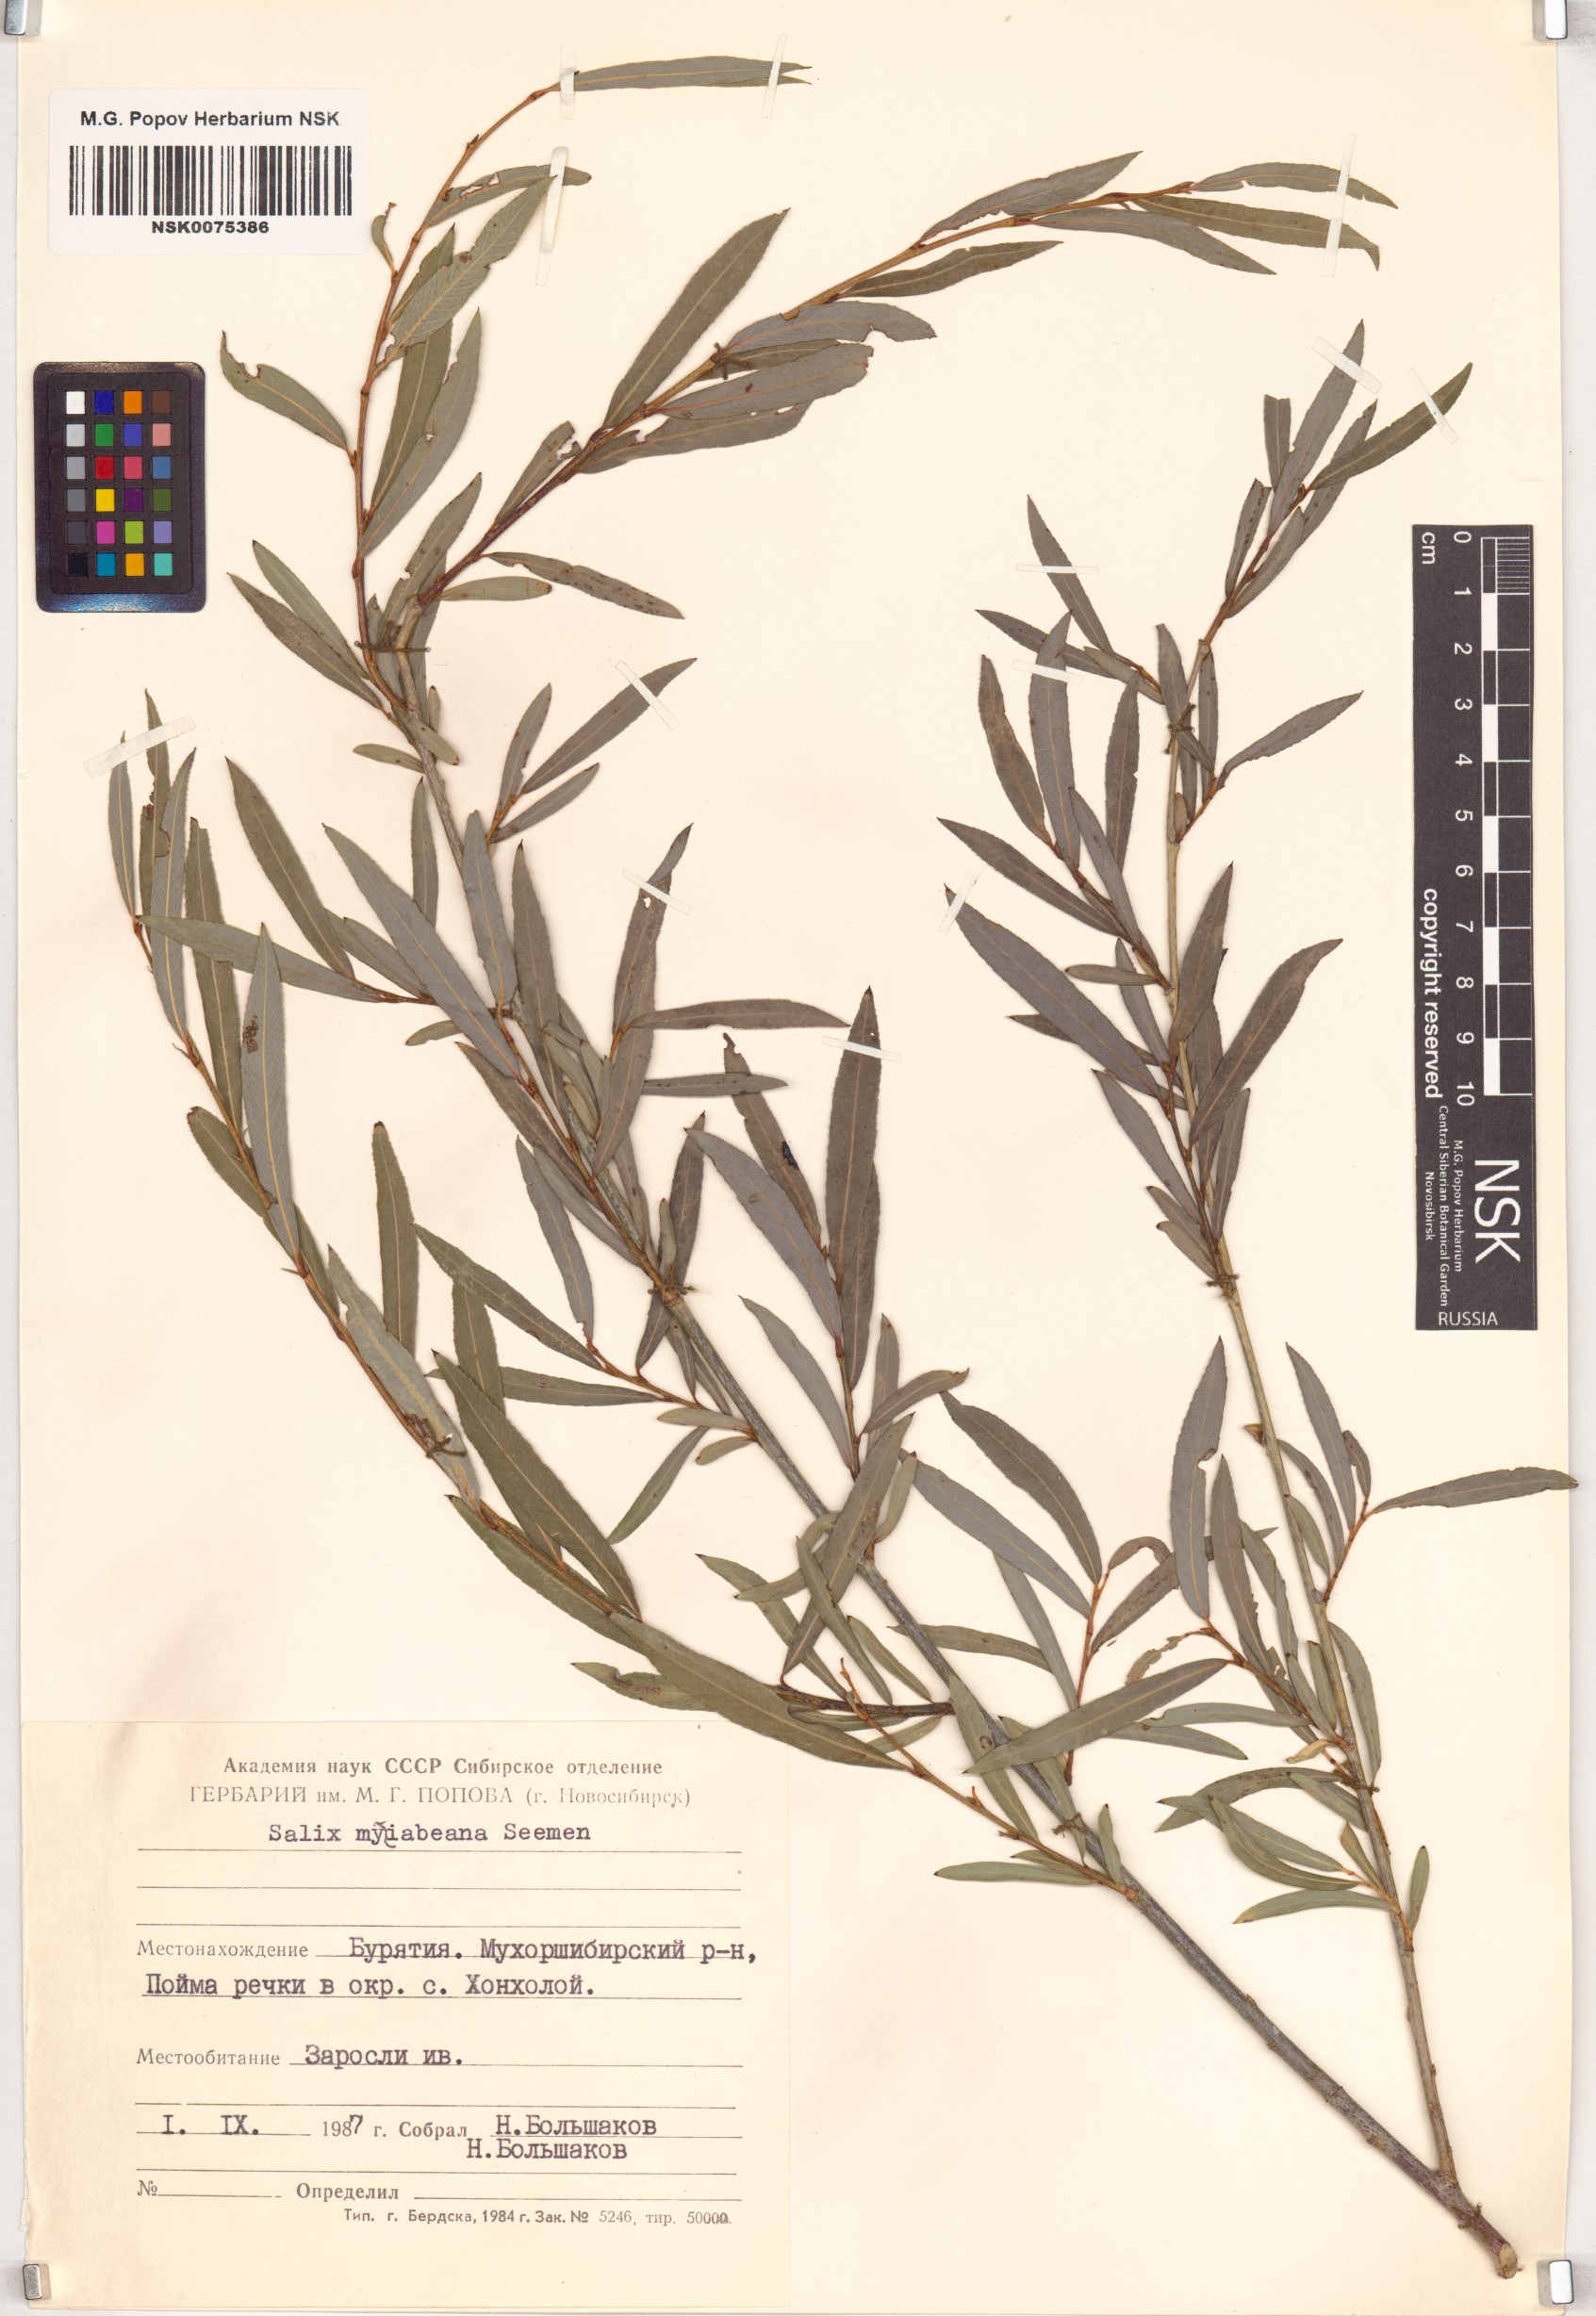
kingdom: Plantae
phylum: Tracheophyta
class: Magnoliopsida
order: Malpighiales
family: Salicaceae
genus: Salix
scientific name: Salix miyabeana
